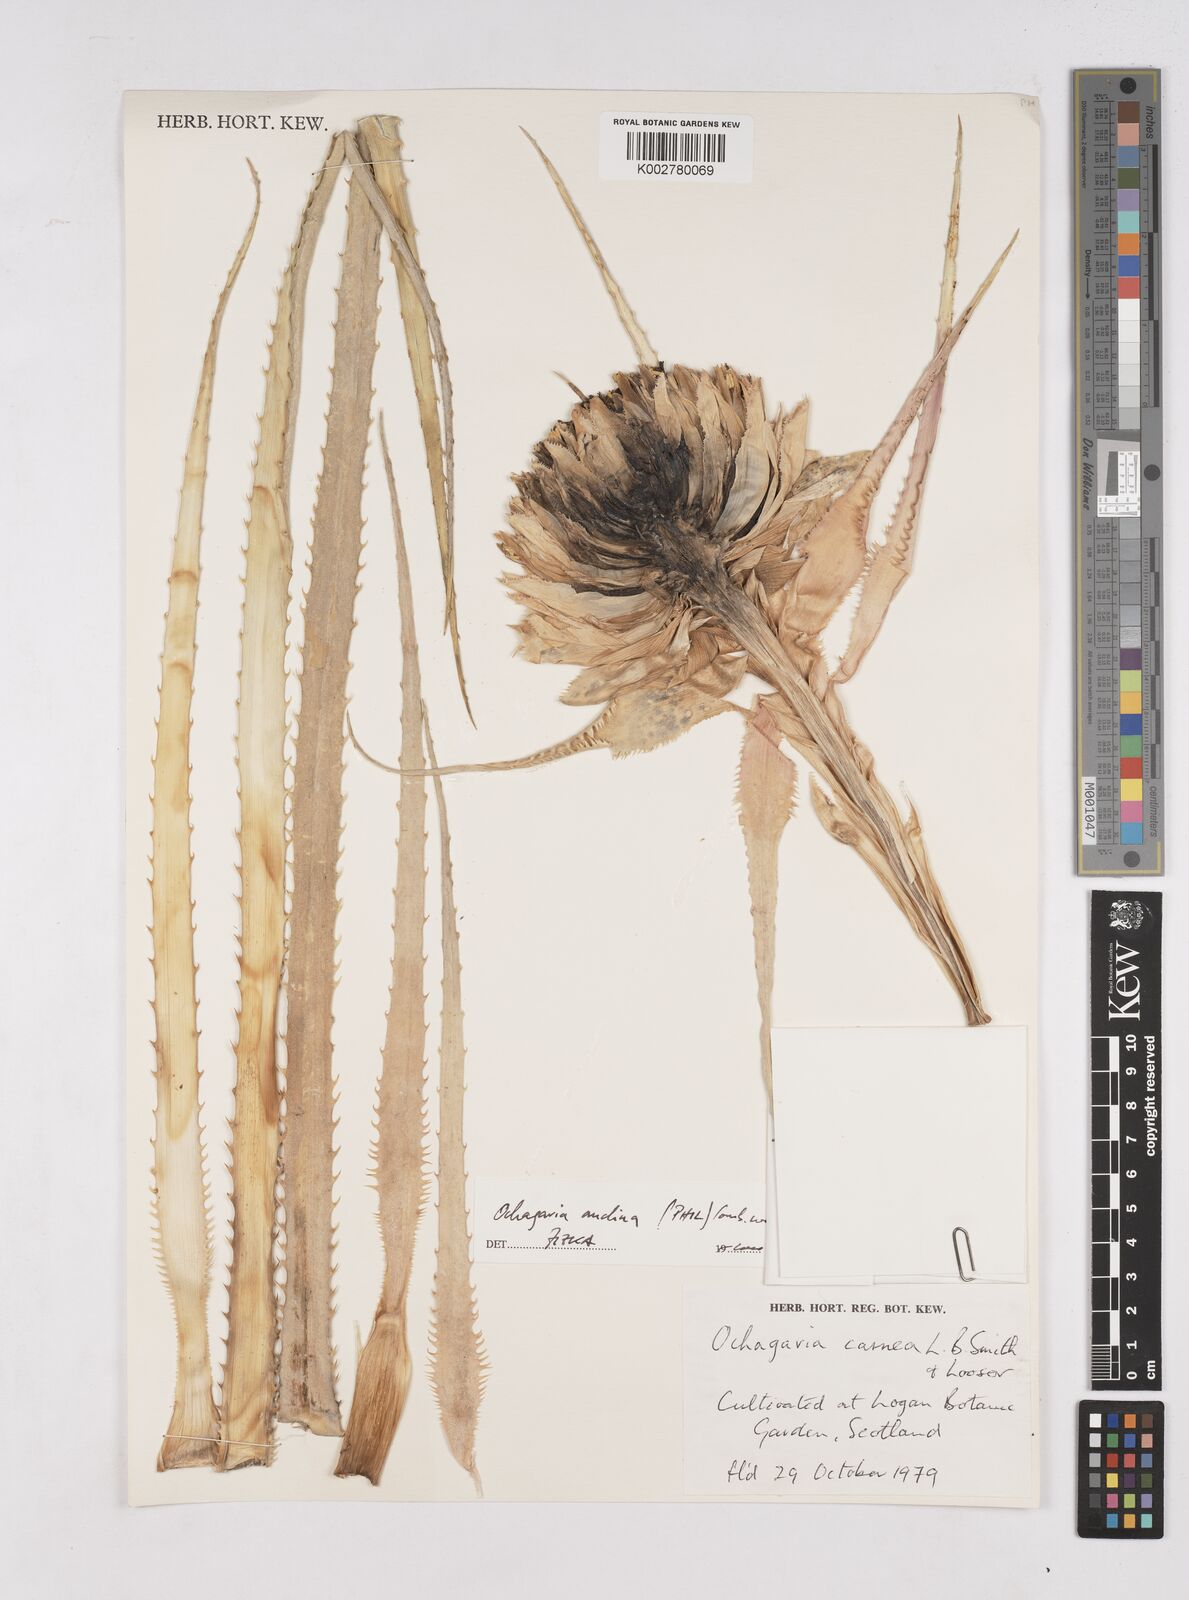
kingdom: Plantae
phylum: Tracheophyta
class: Liliopsida
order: Poales
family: Bromeliaceae
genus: Ochagavia
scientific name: Ochagavia carnea
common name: Tresco rhodostachys
